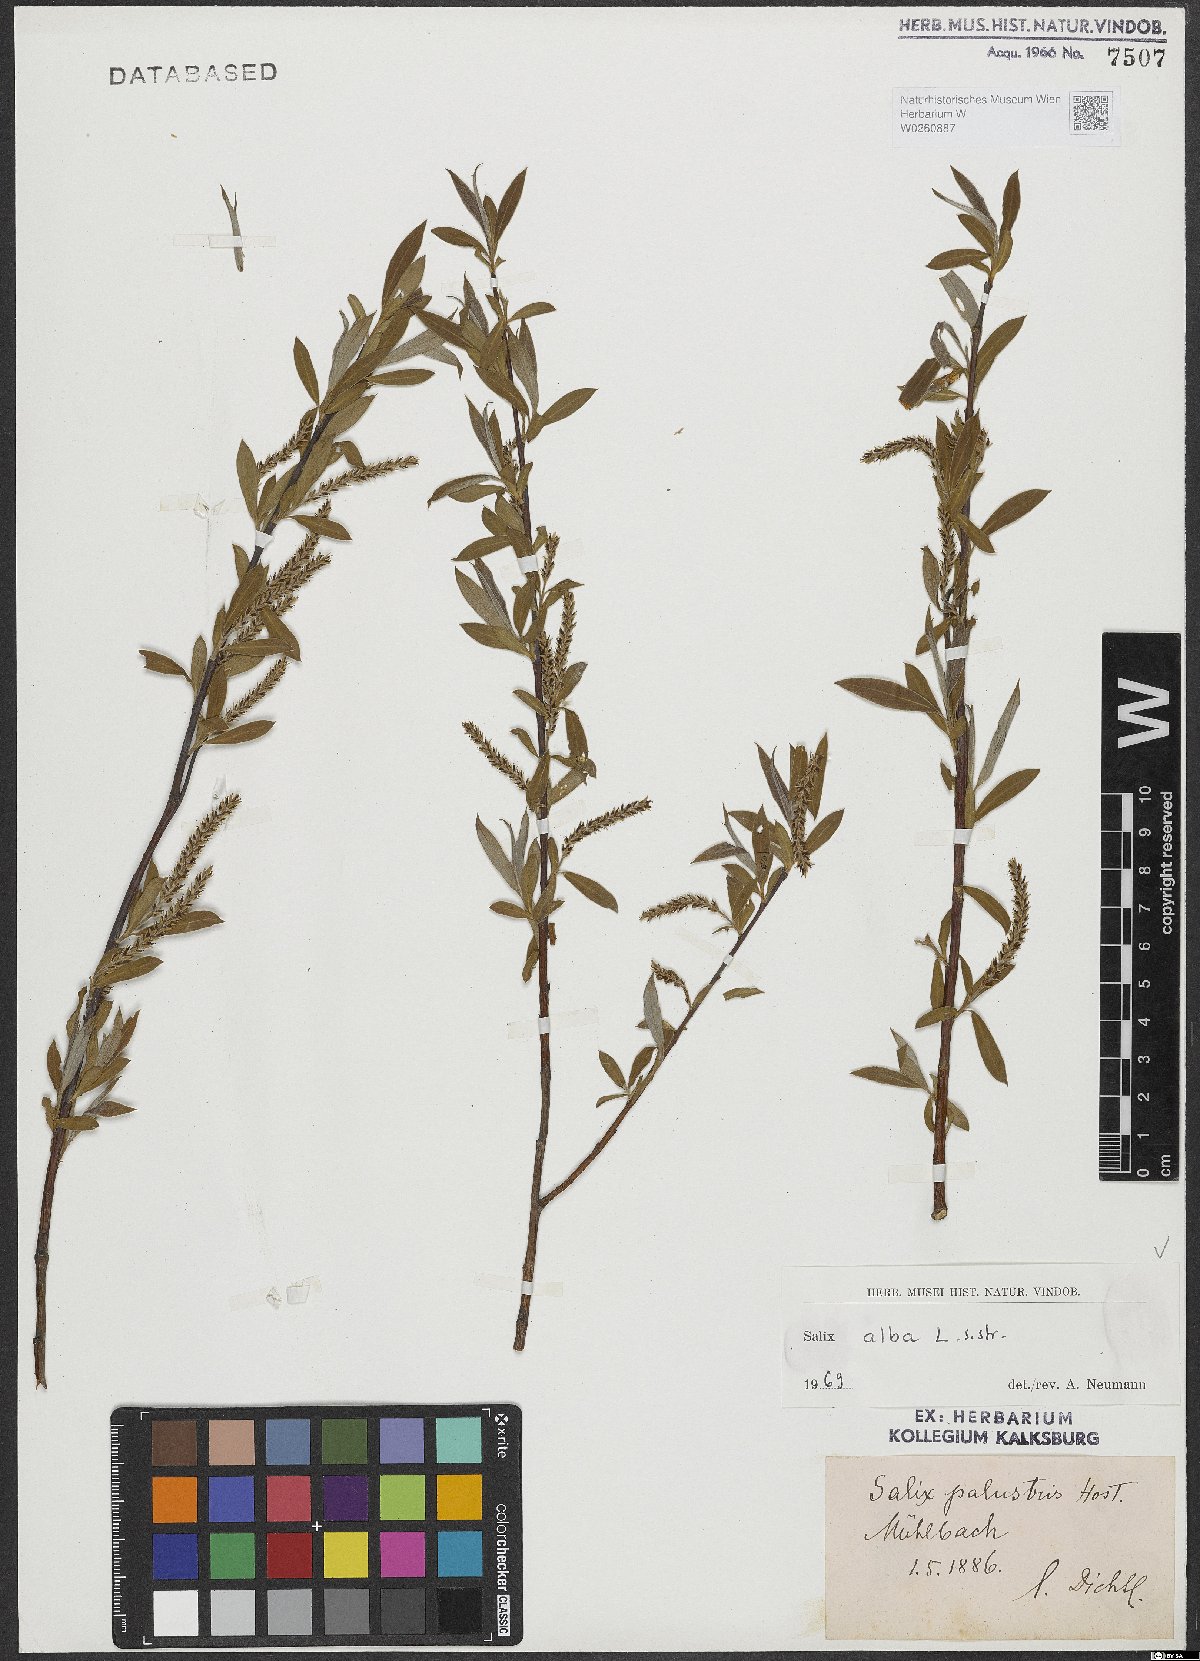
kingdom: Plantae
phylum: Tracheophyta
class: Magnoliopsida
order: Malpighiales
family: Salicaceae
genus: Salix
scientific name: Salix alba
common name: White willow
